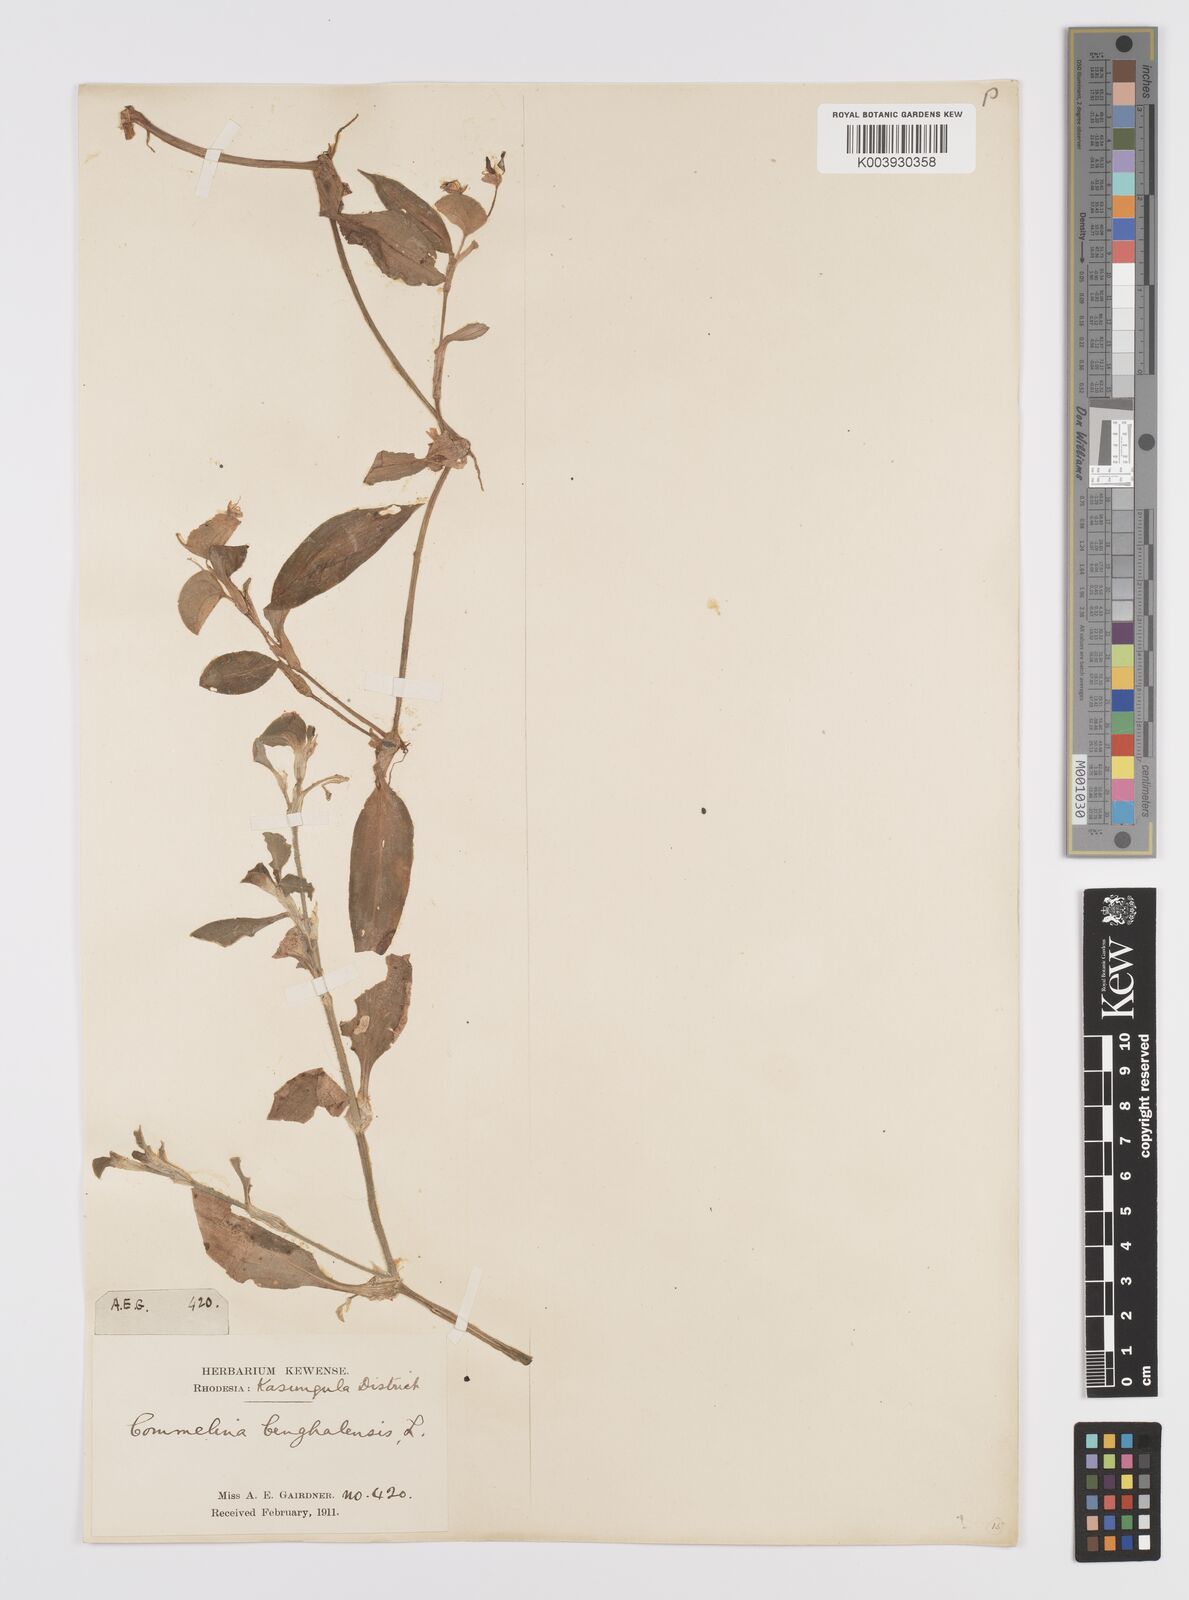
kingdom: Plantae
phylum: Tracheophyta
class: Liliopsida
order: Commelinales
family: Commelinaceae
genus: Commelina
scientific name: Commelina benghalensis
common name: Jio
